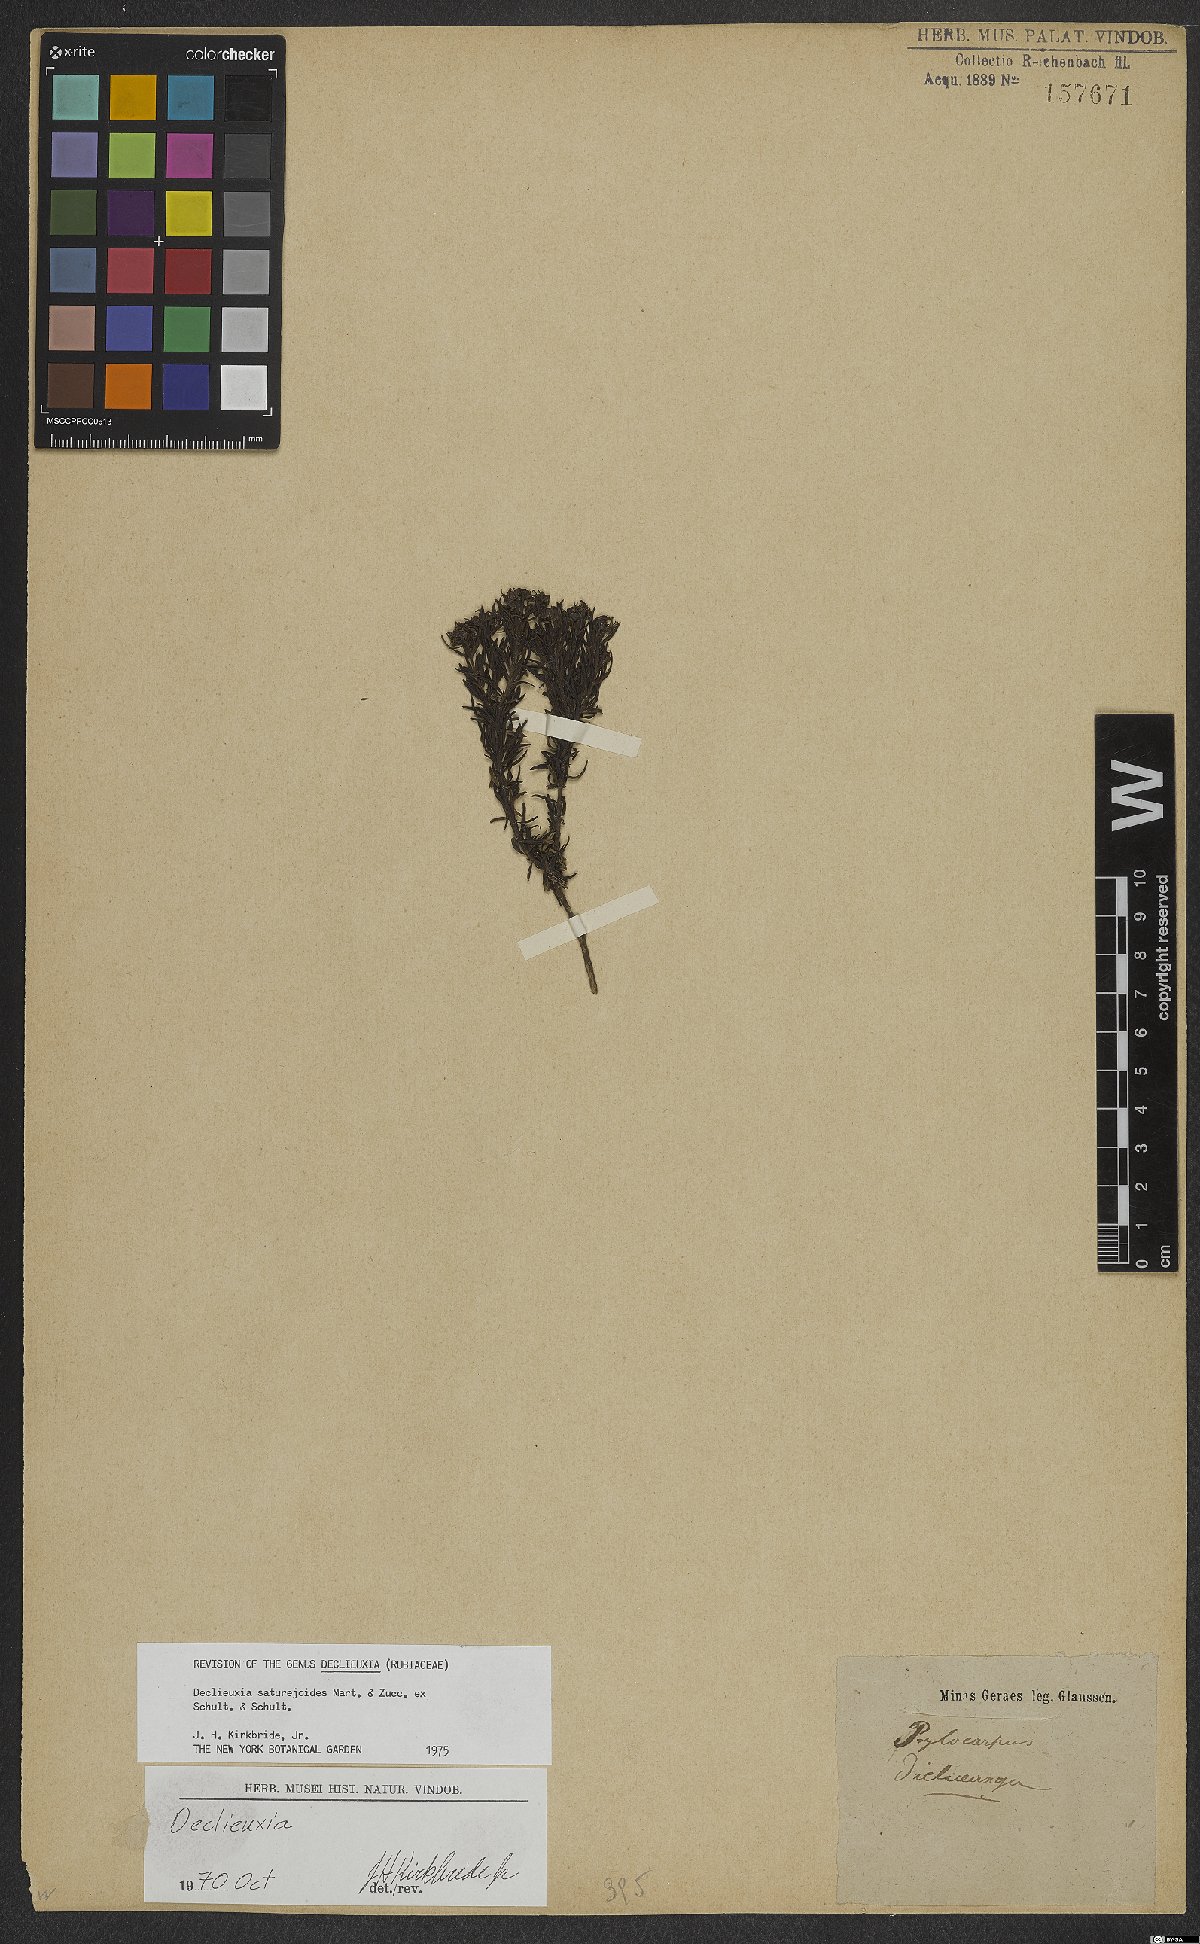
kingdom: Plantae
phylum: Tracheophyta
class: Magnoliopsida
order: Gentianales
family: Rubiaceae
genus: Declieuxia
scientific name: Declieuxia saturejoides
